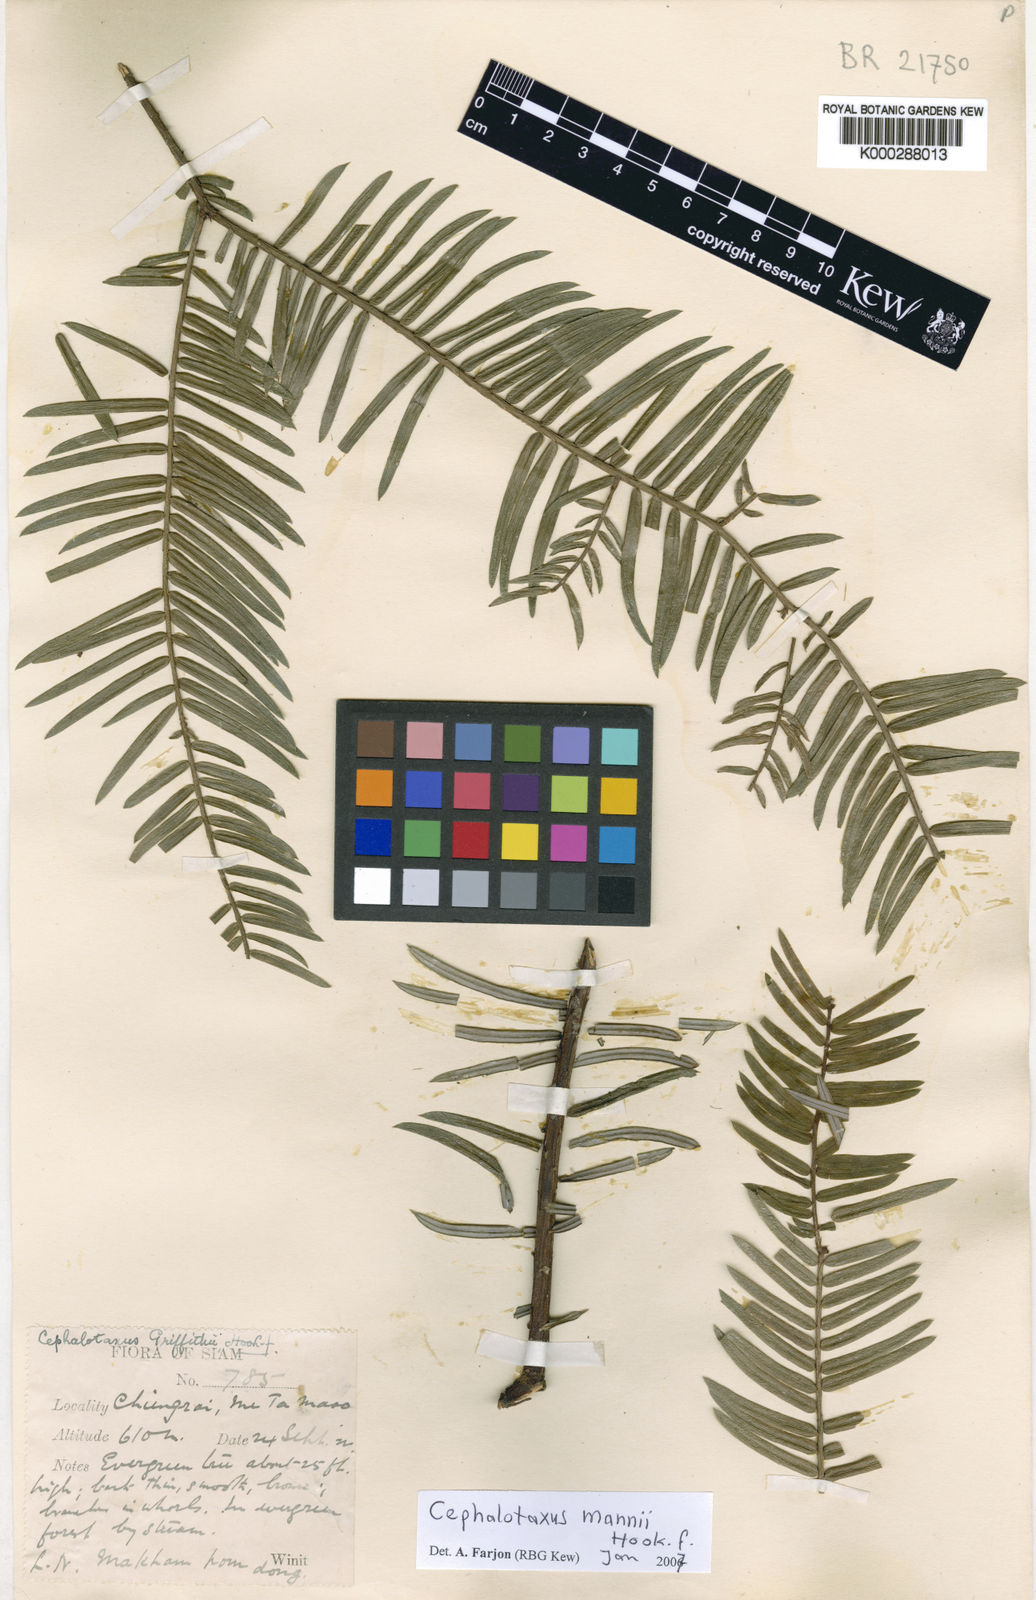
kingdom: Plantae
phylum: Tracheophyta
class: Pinopsida
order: Pinales
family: Cephalotaxaceae
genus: Cephalotaxus
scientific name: Cephalotaxus mannii
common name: Mann's yew plum
